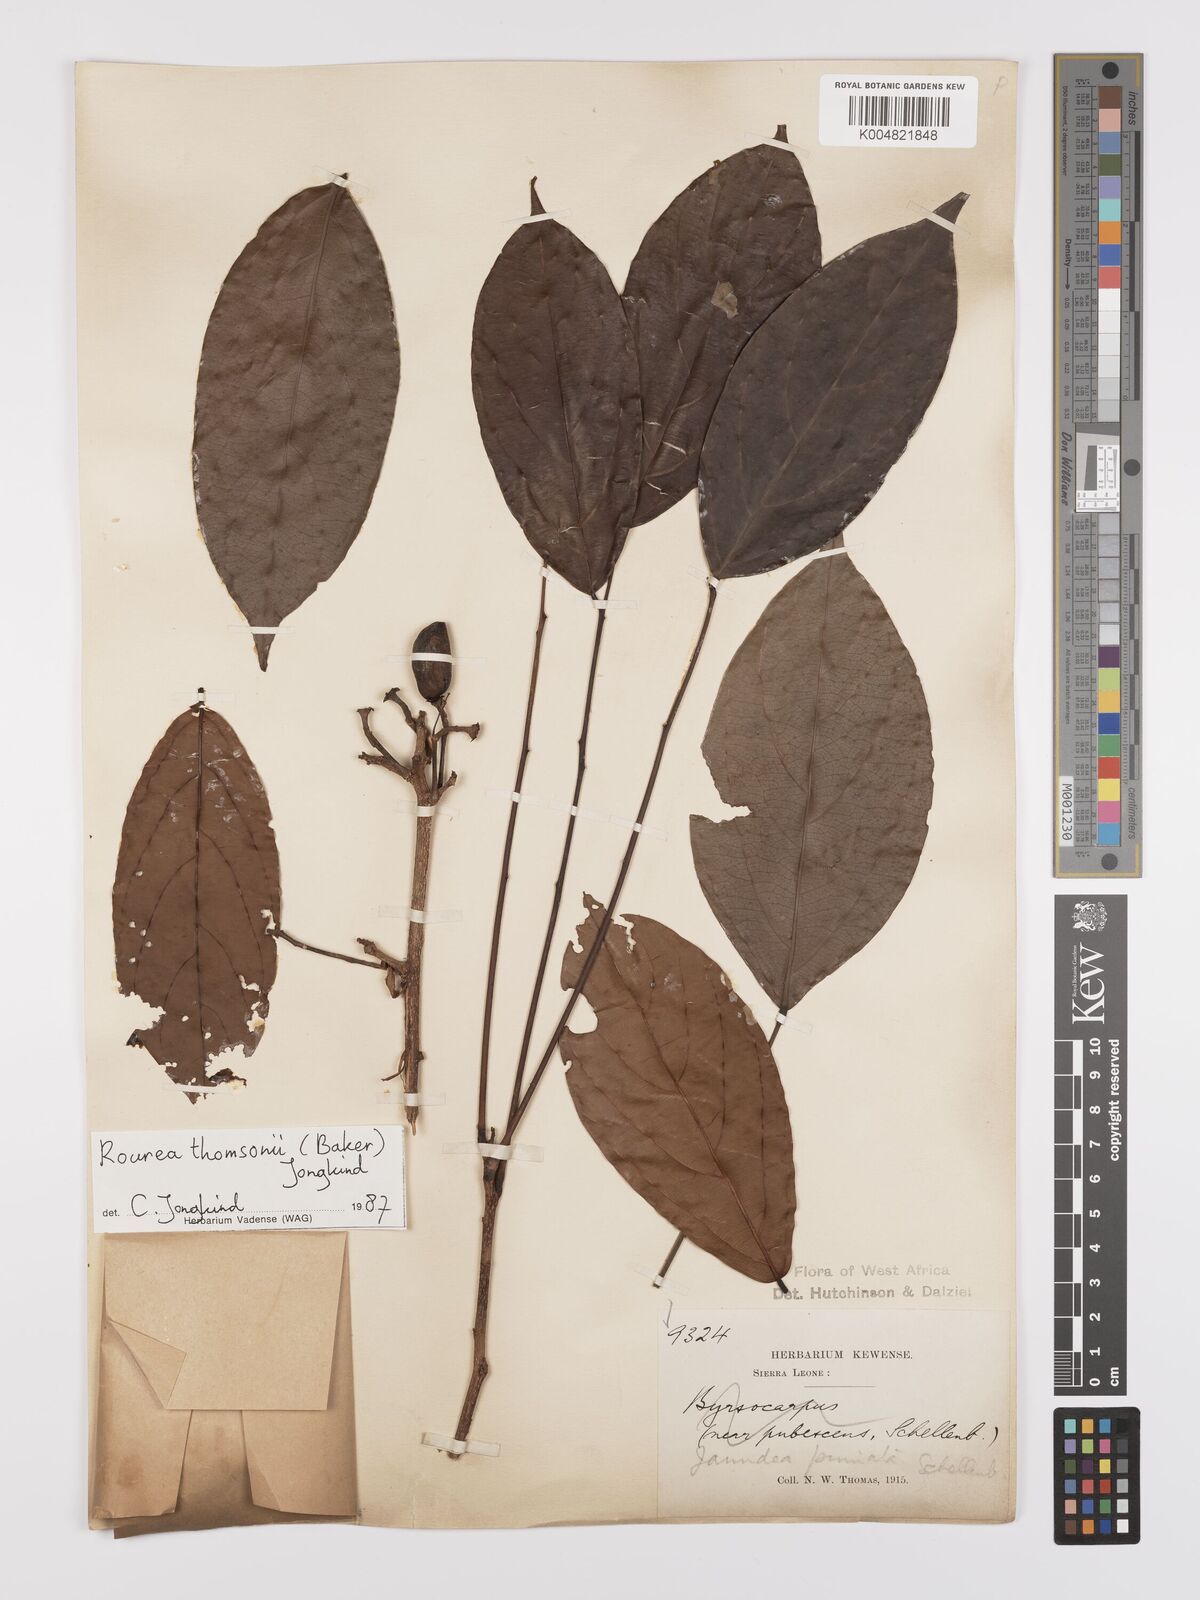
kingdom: Plantae
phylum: Tracheophyta
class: Magnoliopsida
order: Oxalidales
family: Connaraceae
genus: Rourea
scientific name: Rourea pinnata
